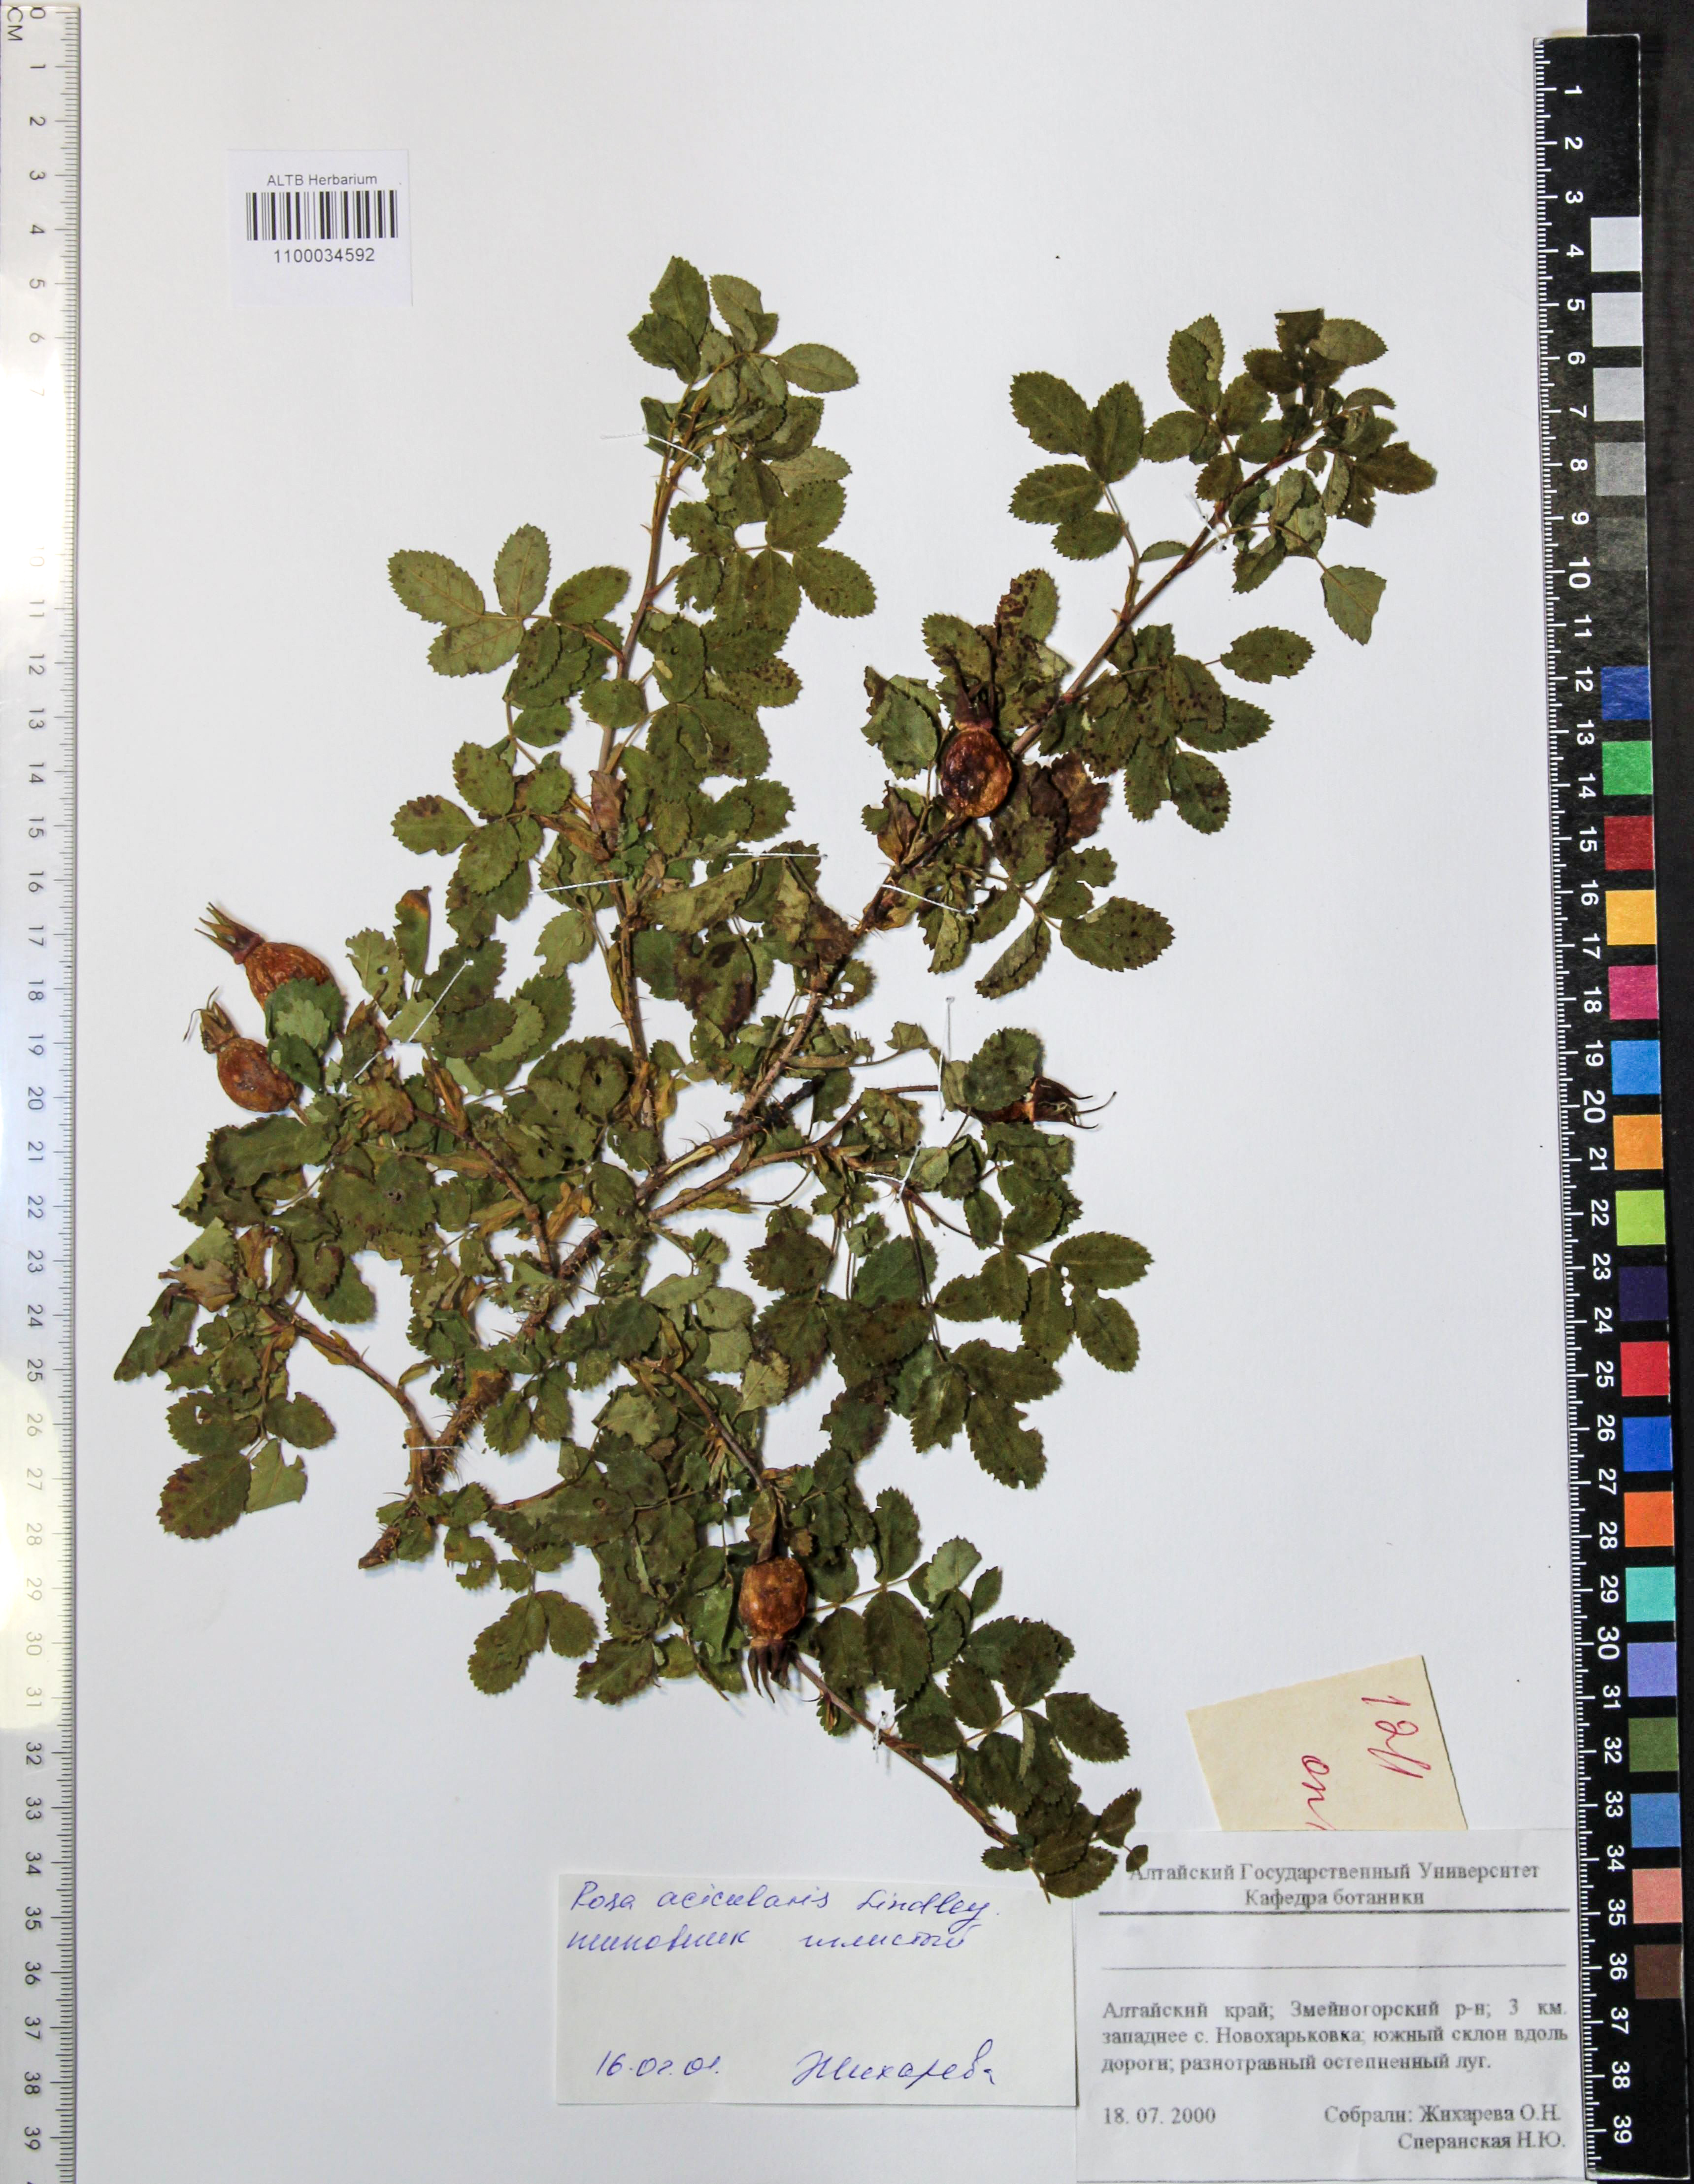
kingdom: Plantae
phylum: Tracheophyta
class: Magnoliopsida
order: Rosales
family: Rosaceae
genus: Rosa
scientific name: Rosa acicularis
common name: Prickly rose
